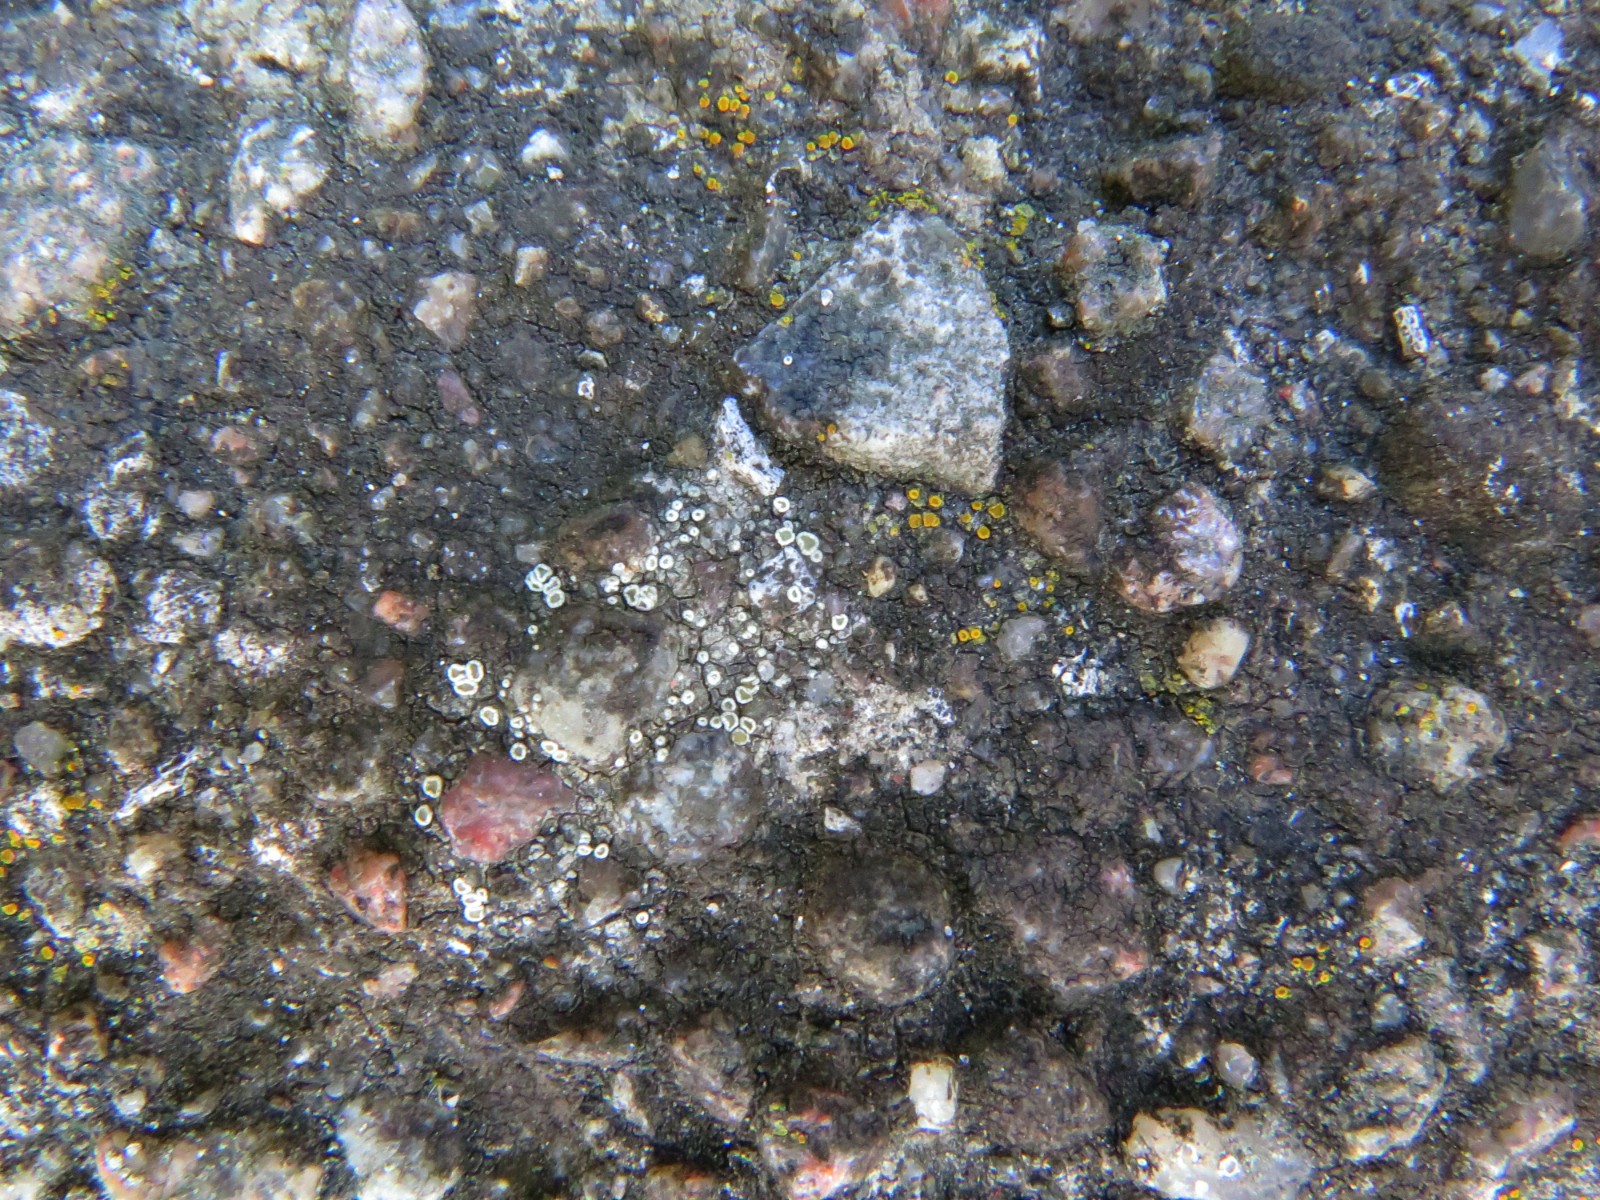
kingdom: Fungi
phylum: Ascomycota
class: Lecanoromycetes
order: Lecanorales
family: Lecanoraceae
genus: Polyozosia
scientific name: Polyozosia dispersa
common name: spredt kantskivelav
